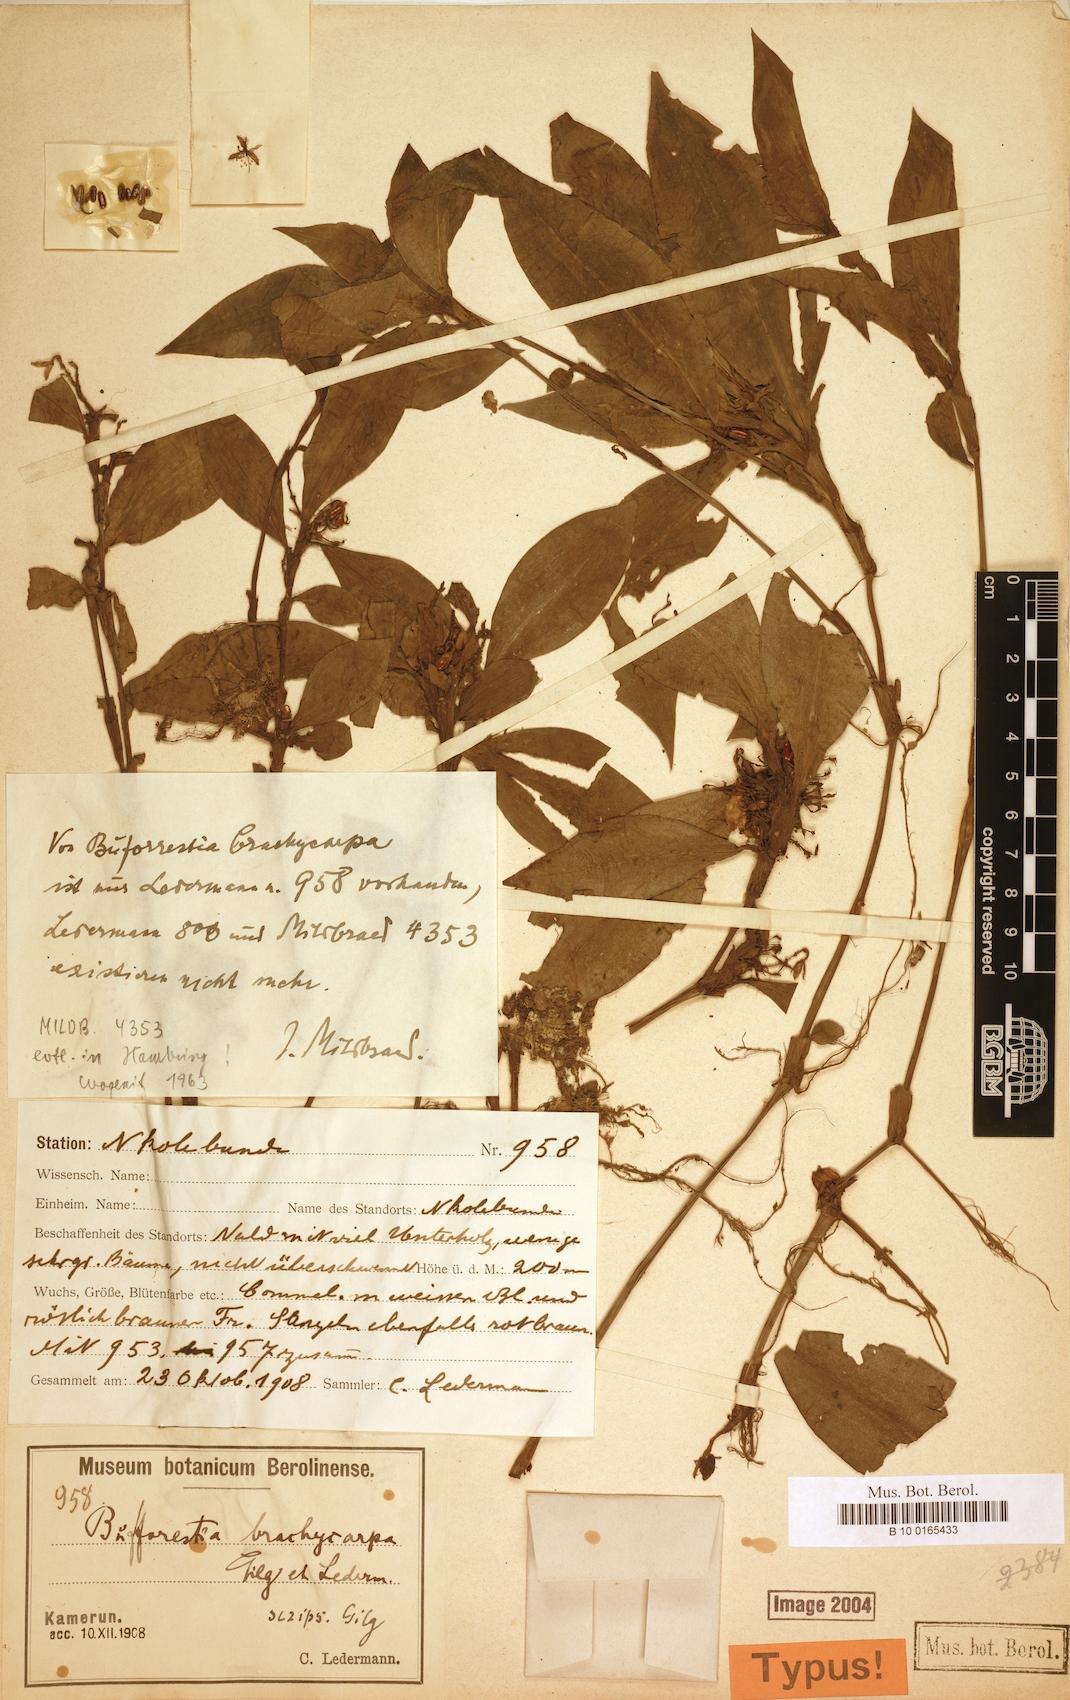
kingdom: Plantae
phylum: Tracheophyta
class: Liliopsida
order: Commelinales
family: Commelinaceae
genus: Stanfieldiella
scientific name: Stanfieldiella brachycarpa
